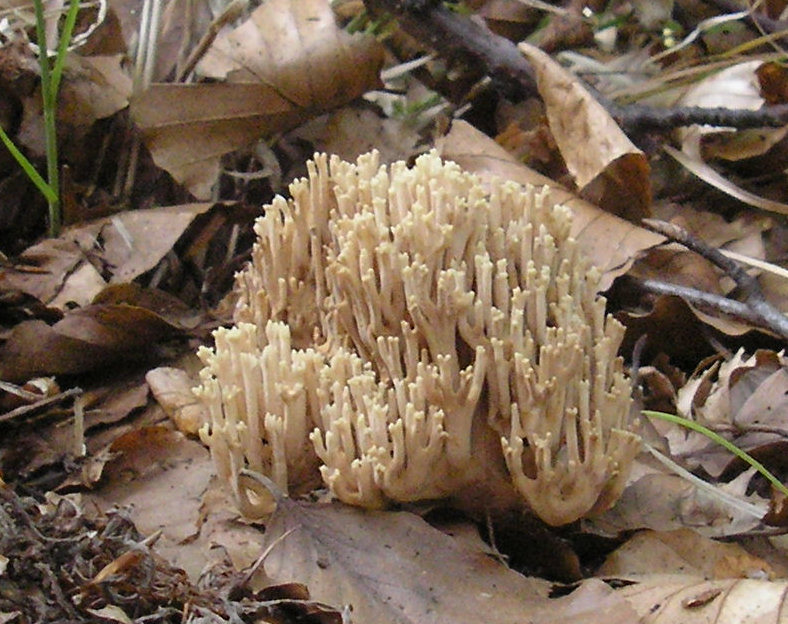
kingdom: Fungi
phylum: Basidiomycota
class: Agaricomycetes
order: Gomphales
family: Gomphaceae
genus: Ramaria
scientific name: Ramaria stricta
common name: rank koralsvamp
